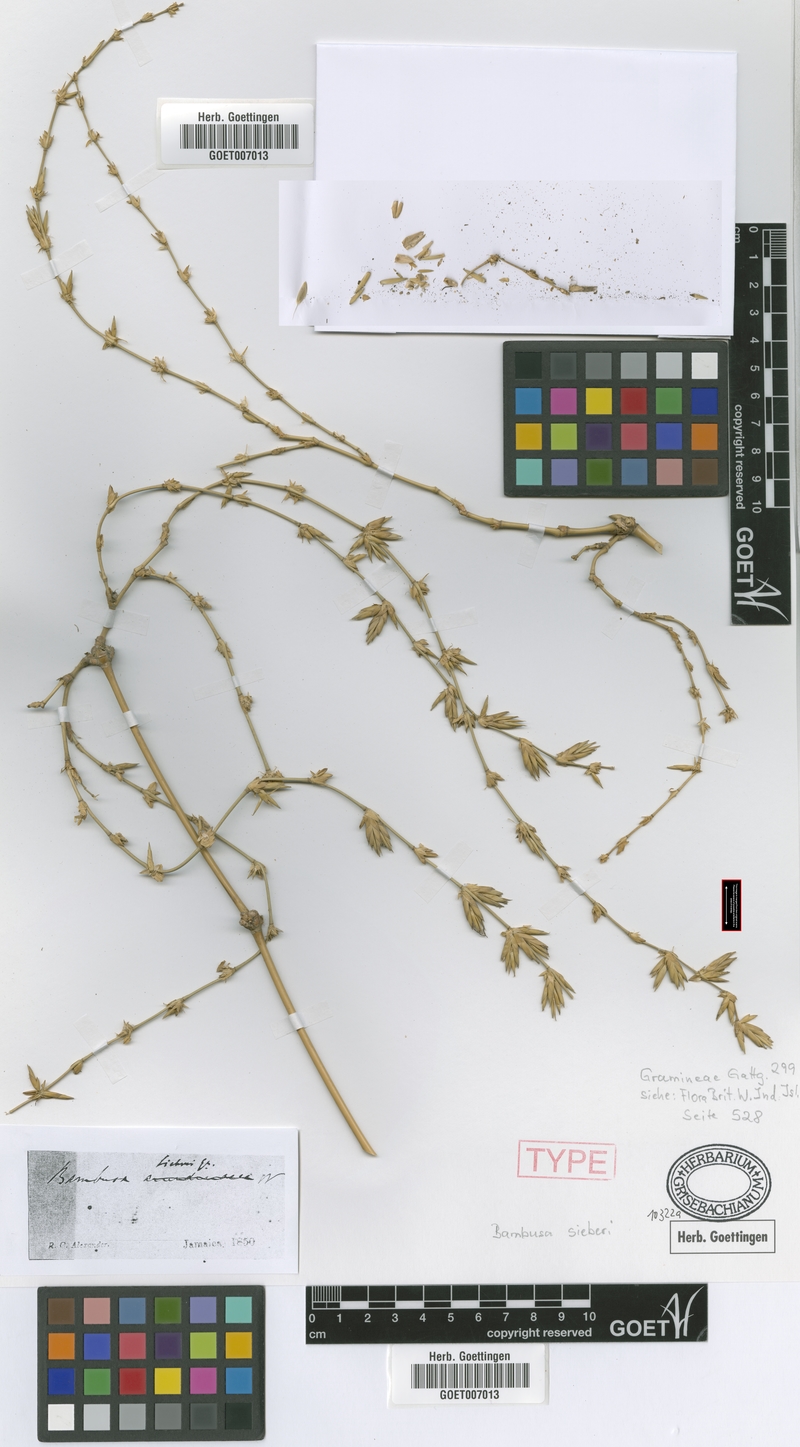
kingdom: Plantae
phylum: Tracheophyta
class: Liliopsida
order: Poales
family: Poaceae
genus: Bambusa
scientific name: Bambusa vulgaris
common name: Common bamboo
